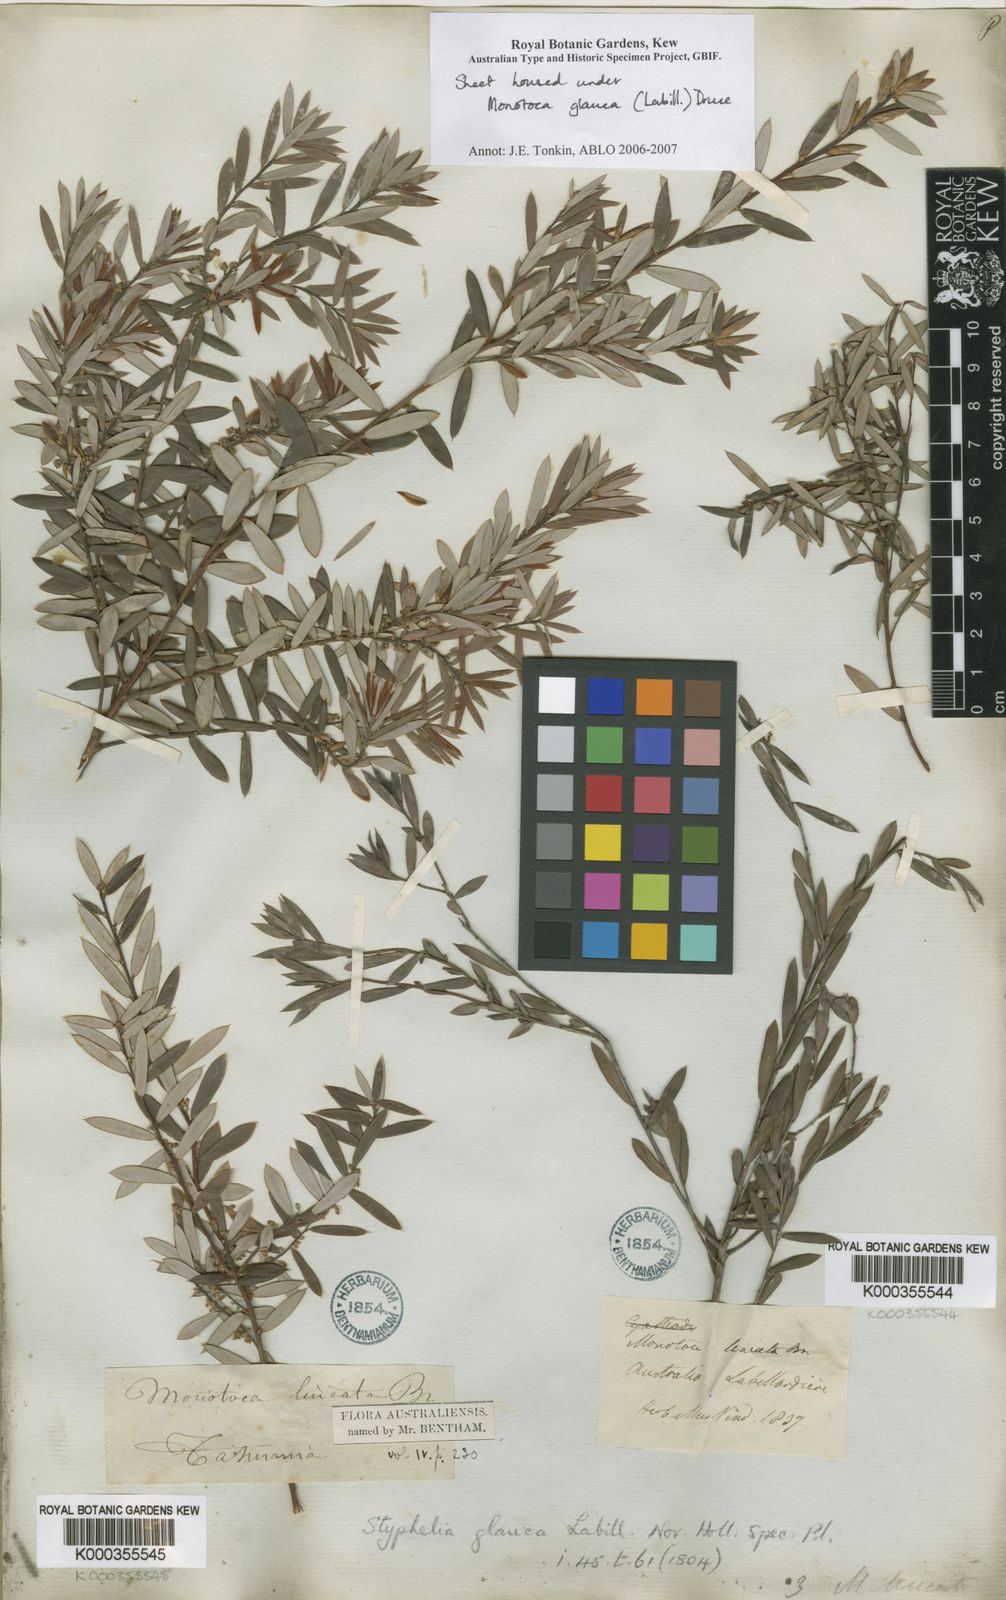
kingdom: Plantae
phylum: Tracheophyta
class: Magnoliopsida
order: Ericales
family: Ericaceae
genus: Monotoca
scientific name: Monotoca glauca
